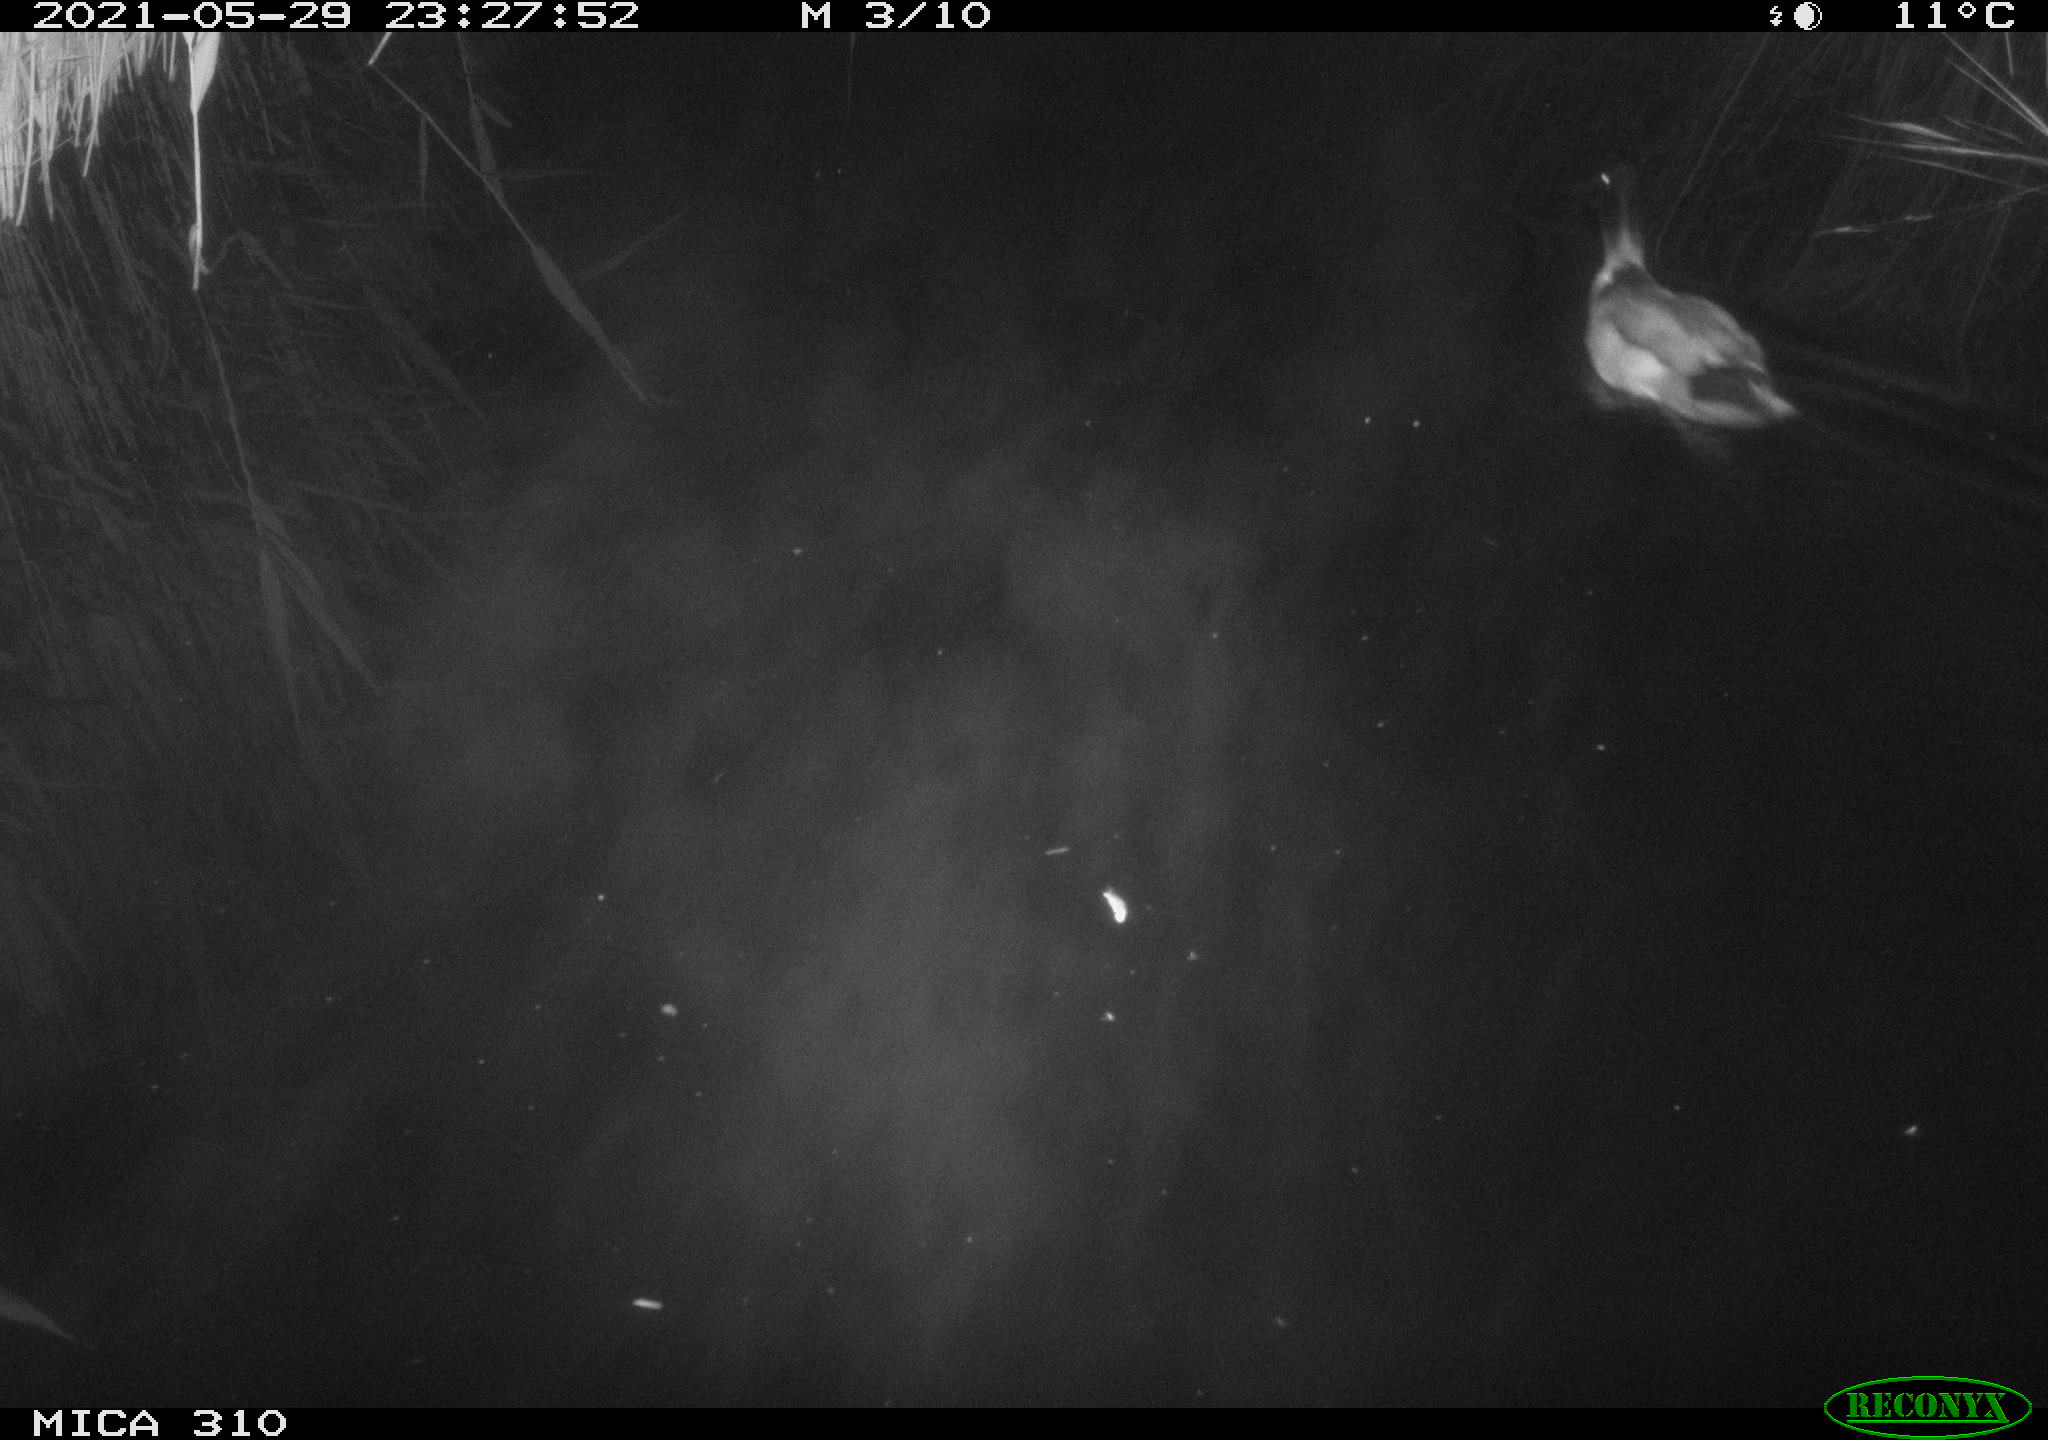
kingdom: Animalia
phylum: Chordata
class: Aves
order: Anseriformes
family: Anatidae
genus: Anas
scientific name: Anas platyrhynchos
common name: Mallard
